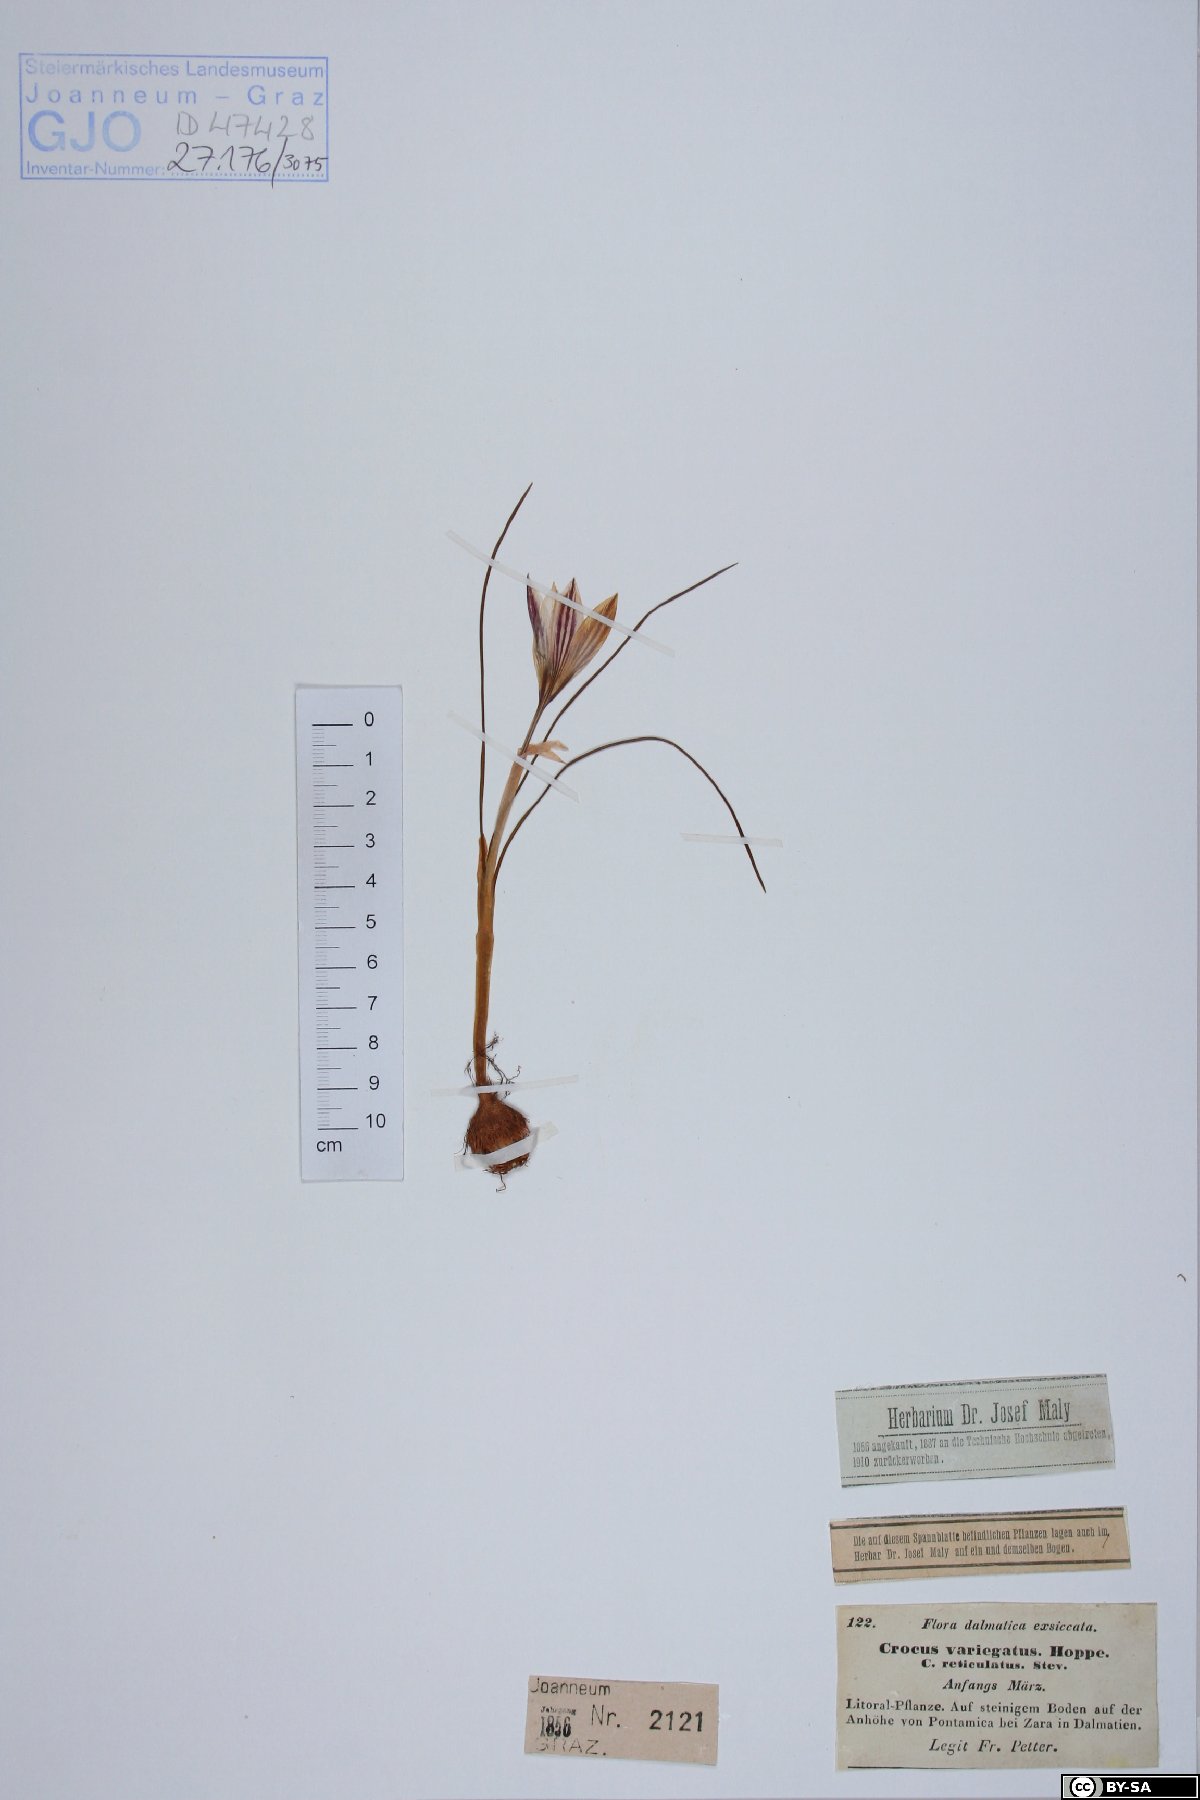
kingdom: Plantae
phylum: Tracheophyta
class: Liliopsida
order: Asparagales
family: Iridaceae
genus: Crocus
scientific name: Crocus variegatus
